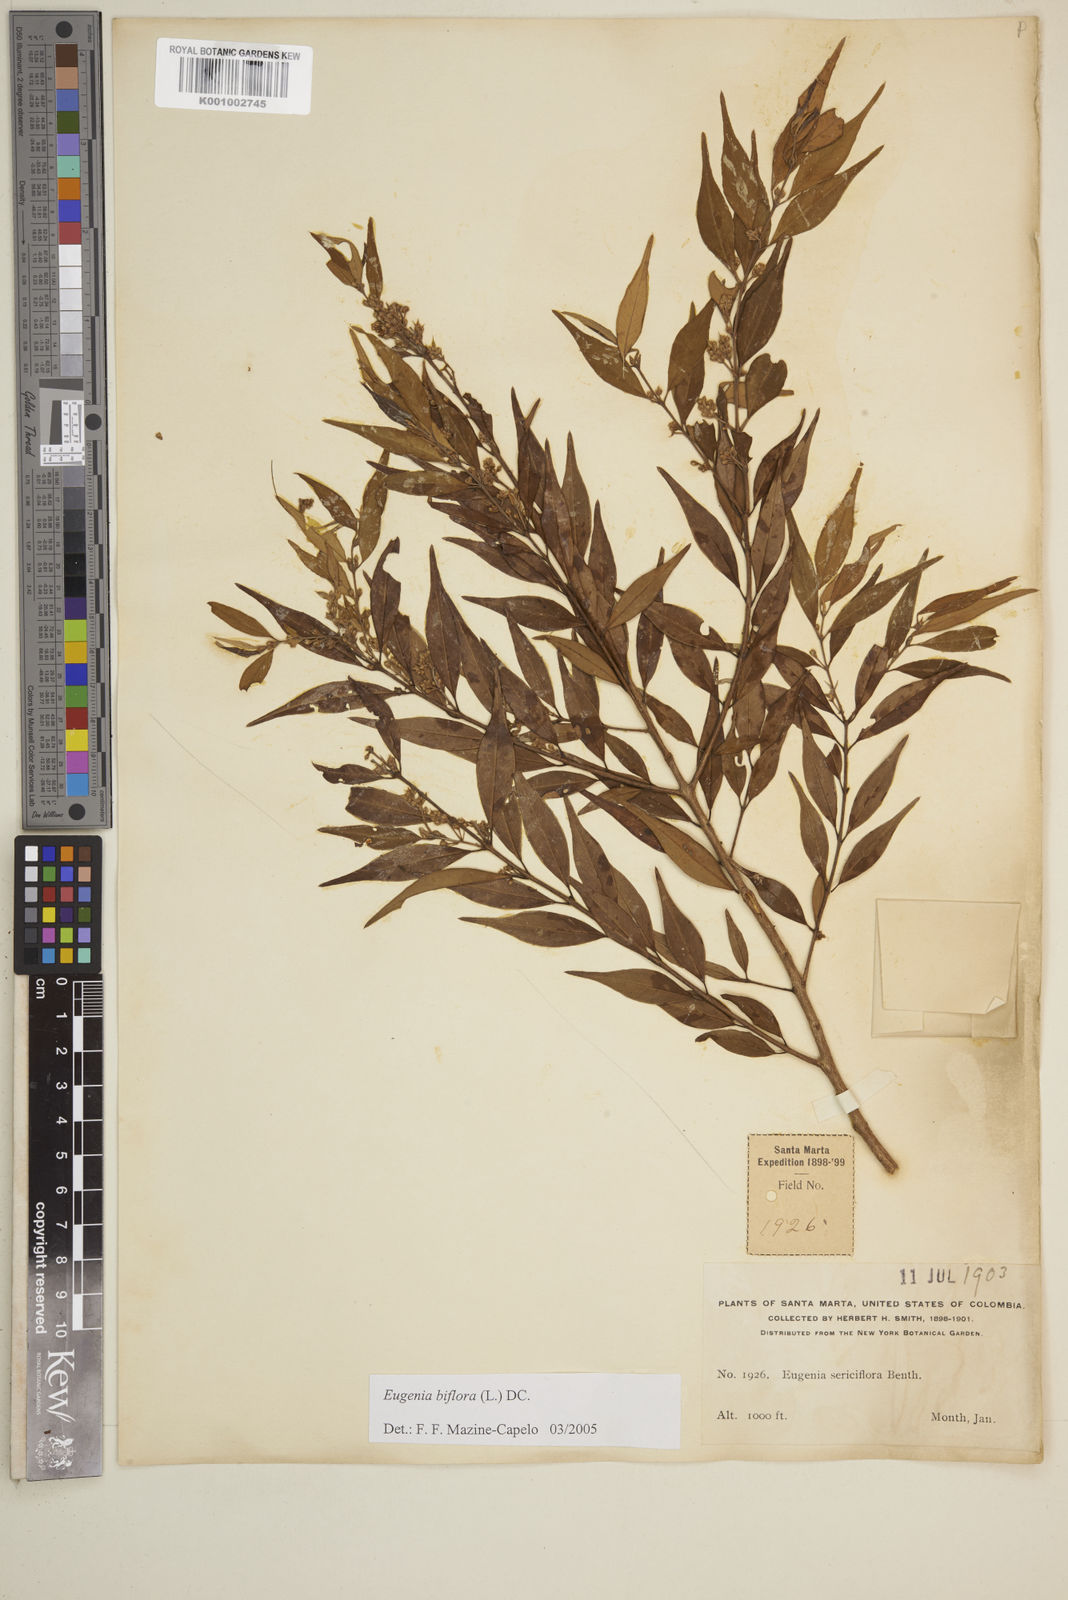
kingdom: Plantae
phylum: Tracheophyta
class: Magnoliopsida
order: Myrtales
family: Myrtaceae
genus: Eugenia
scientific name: Eugenia biflora
